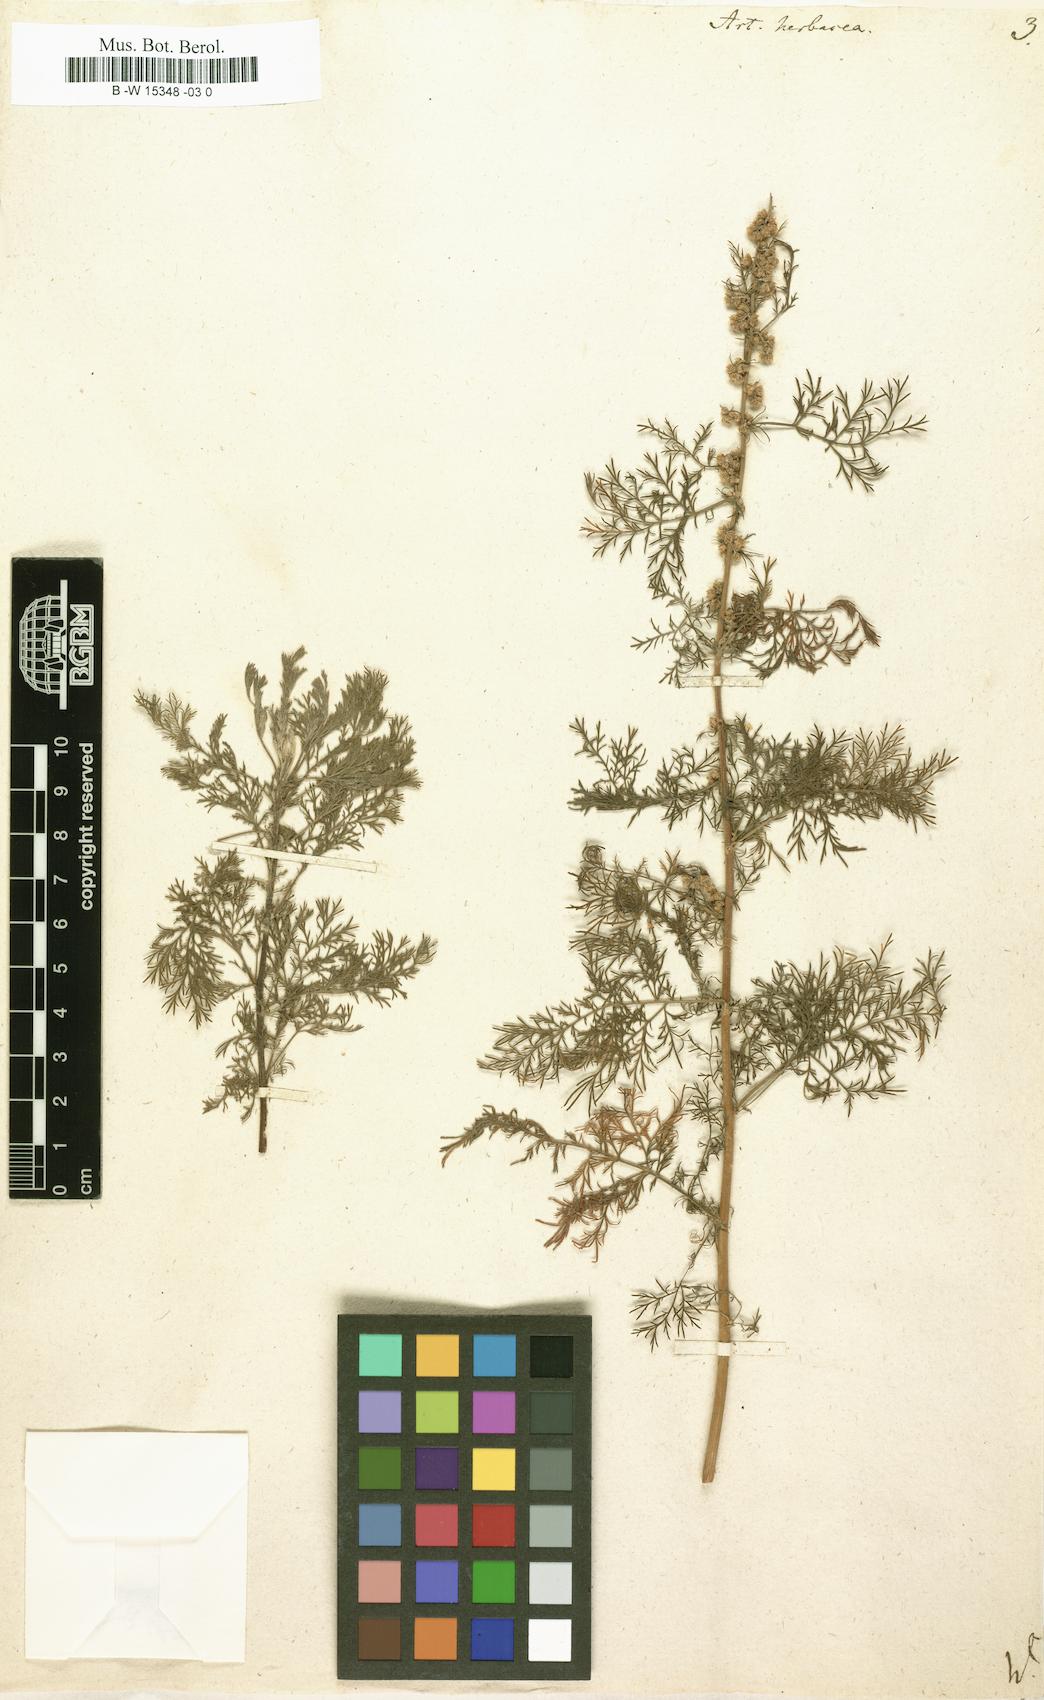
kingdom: Plantae
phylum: Tracheophyta
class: Magnoliopsida
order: Asterales
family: Asteraceae
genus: Artemisia
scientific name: Artemisia abrotanum
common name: Southernwood
